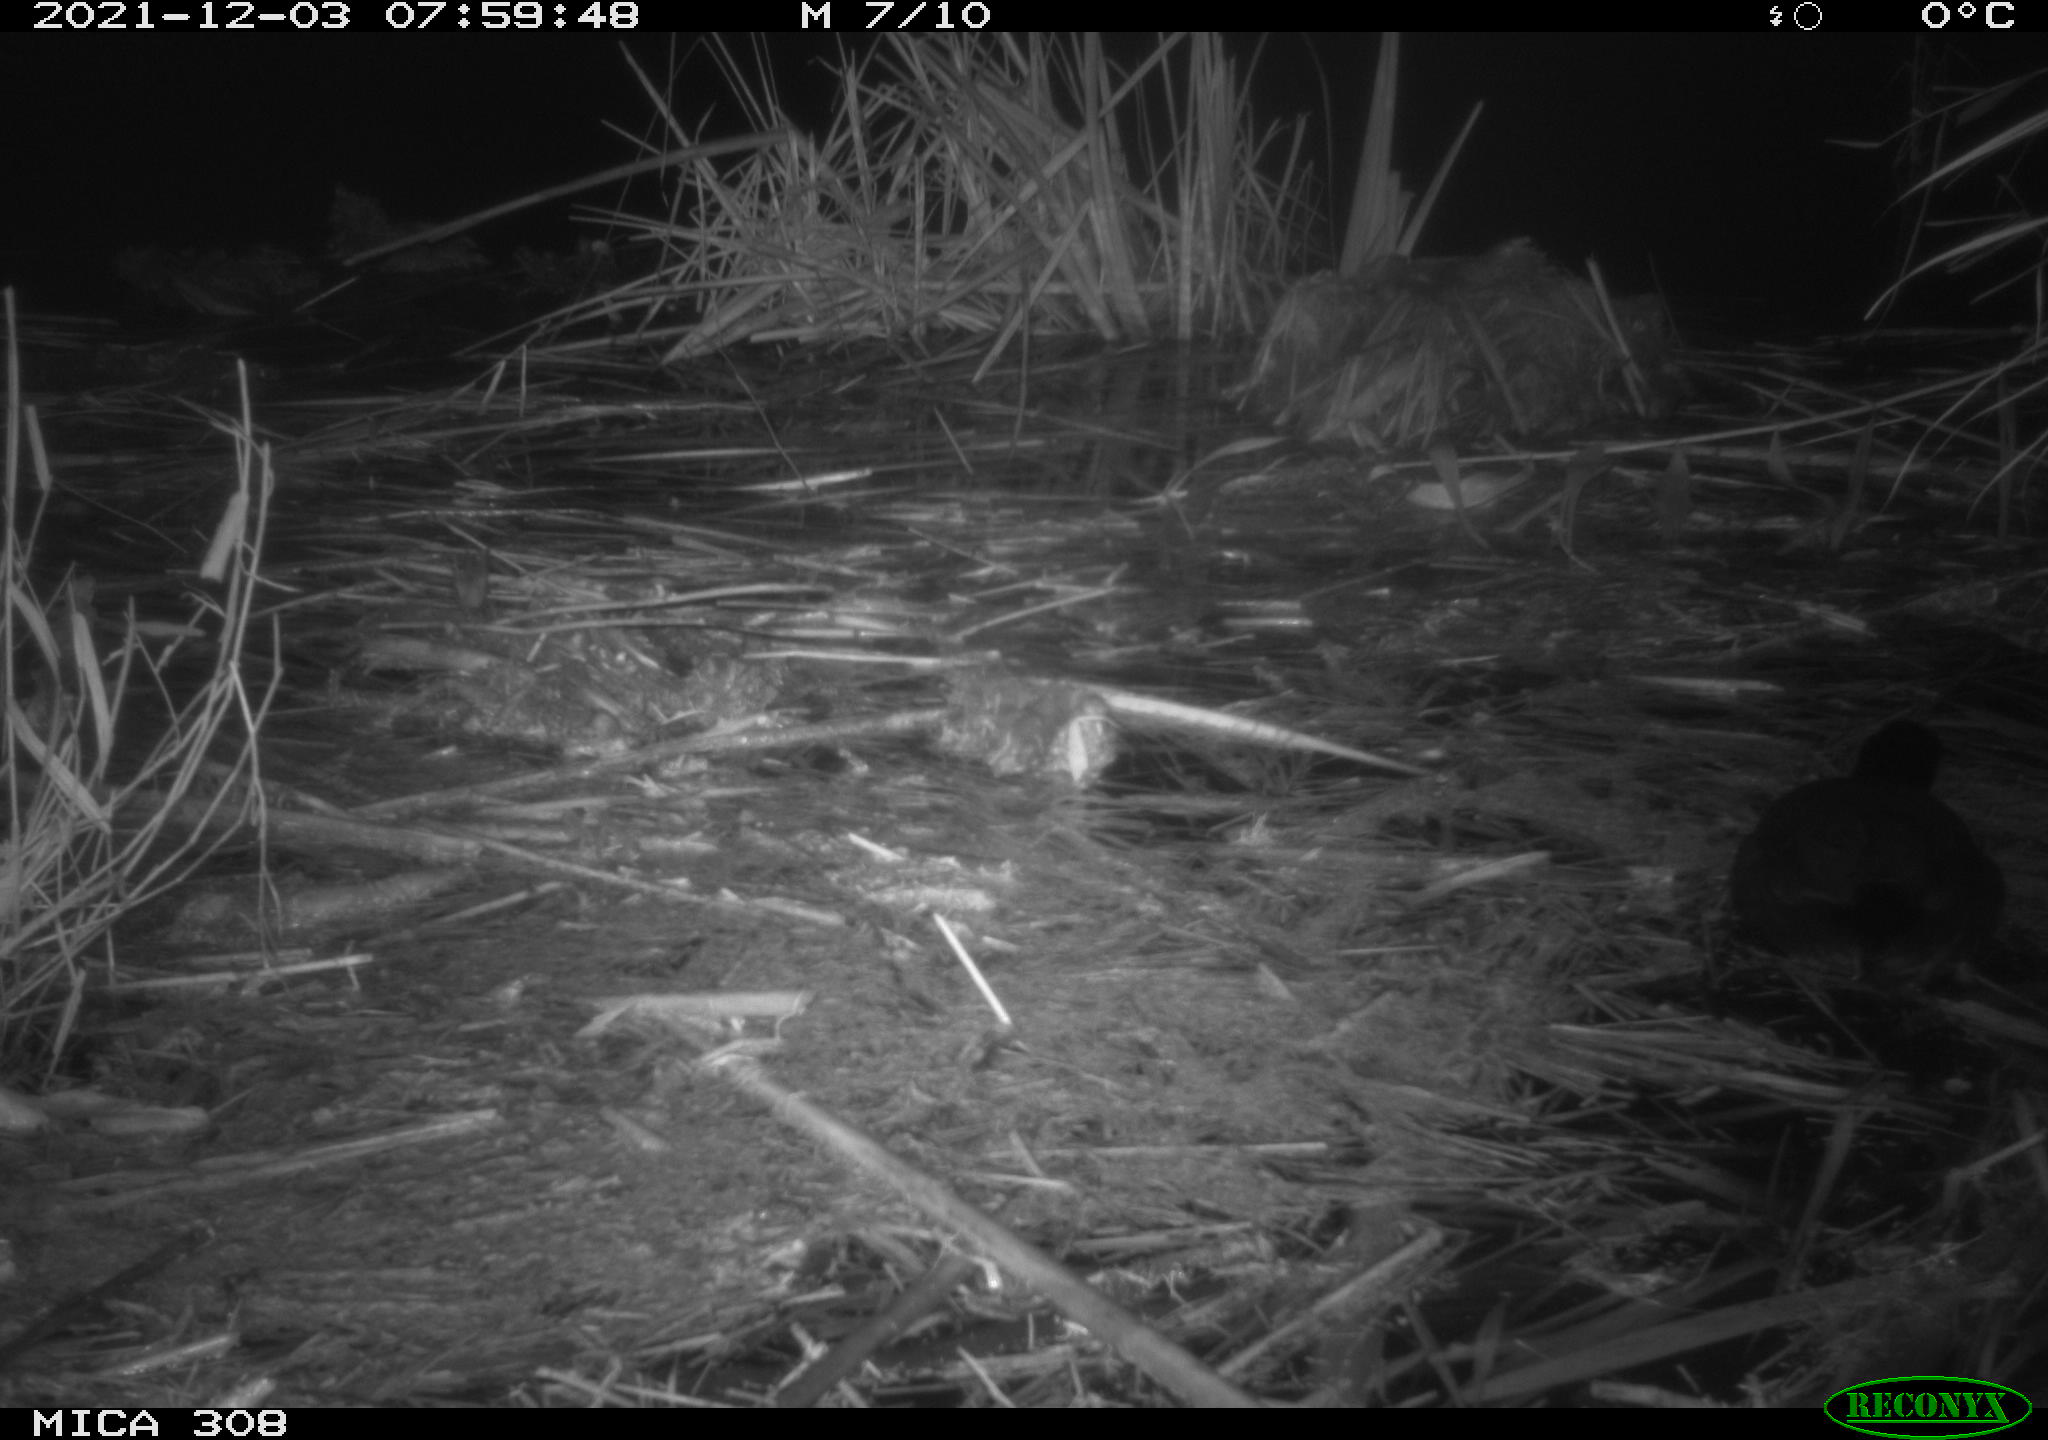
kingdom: Animalia
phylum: Chordata
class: Aves
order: Gruiformes
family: Rallidae
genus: Fulica
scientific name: Fulica atra
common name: Eurasian coot
